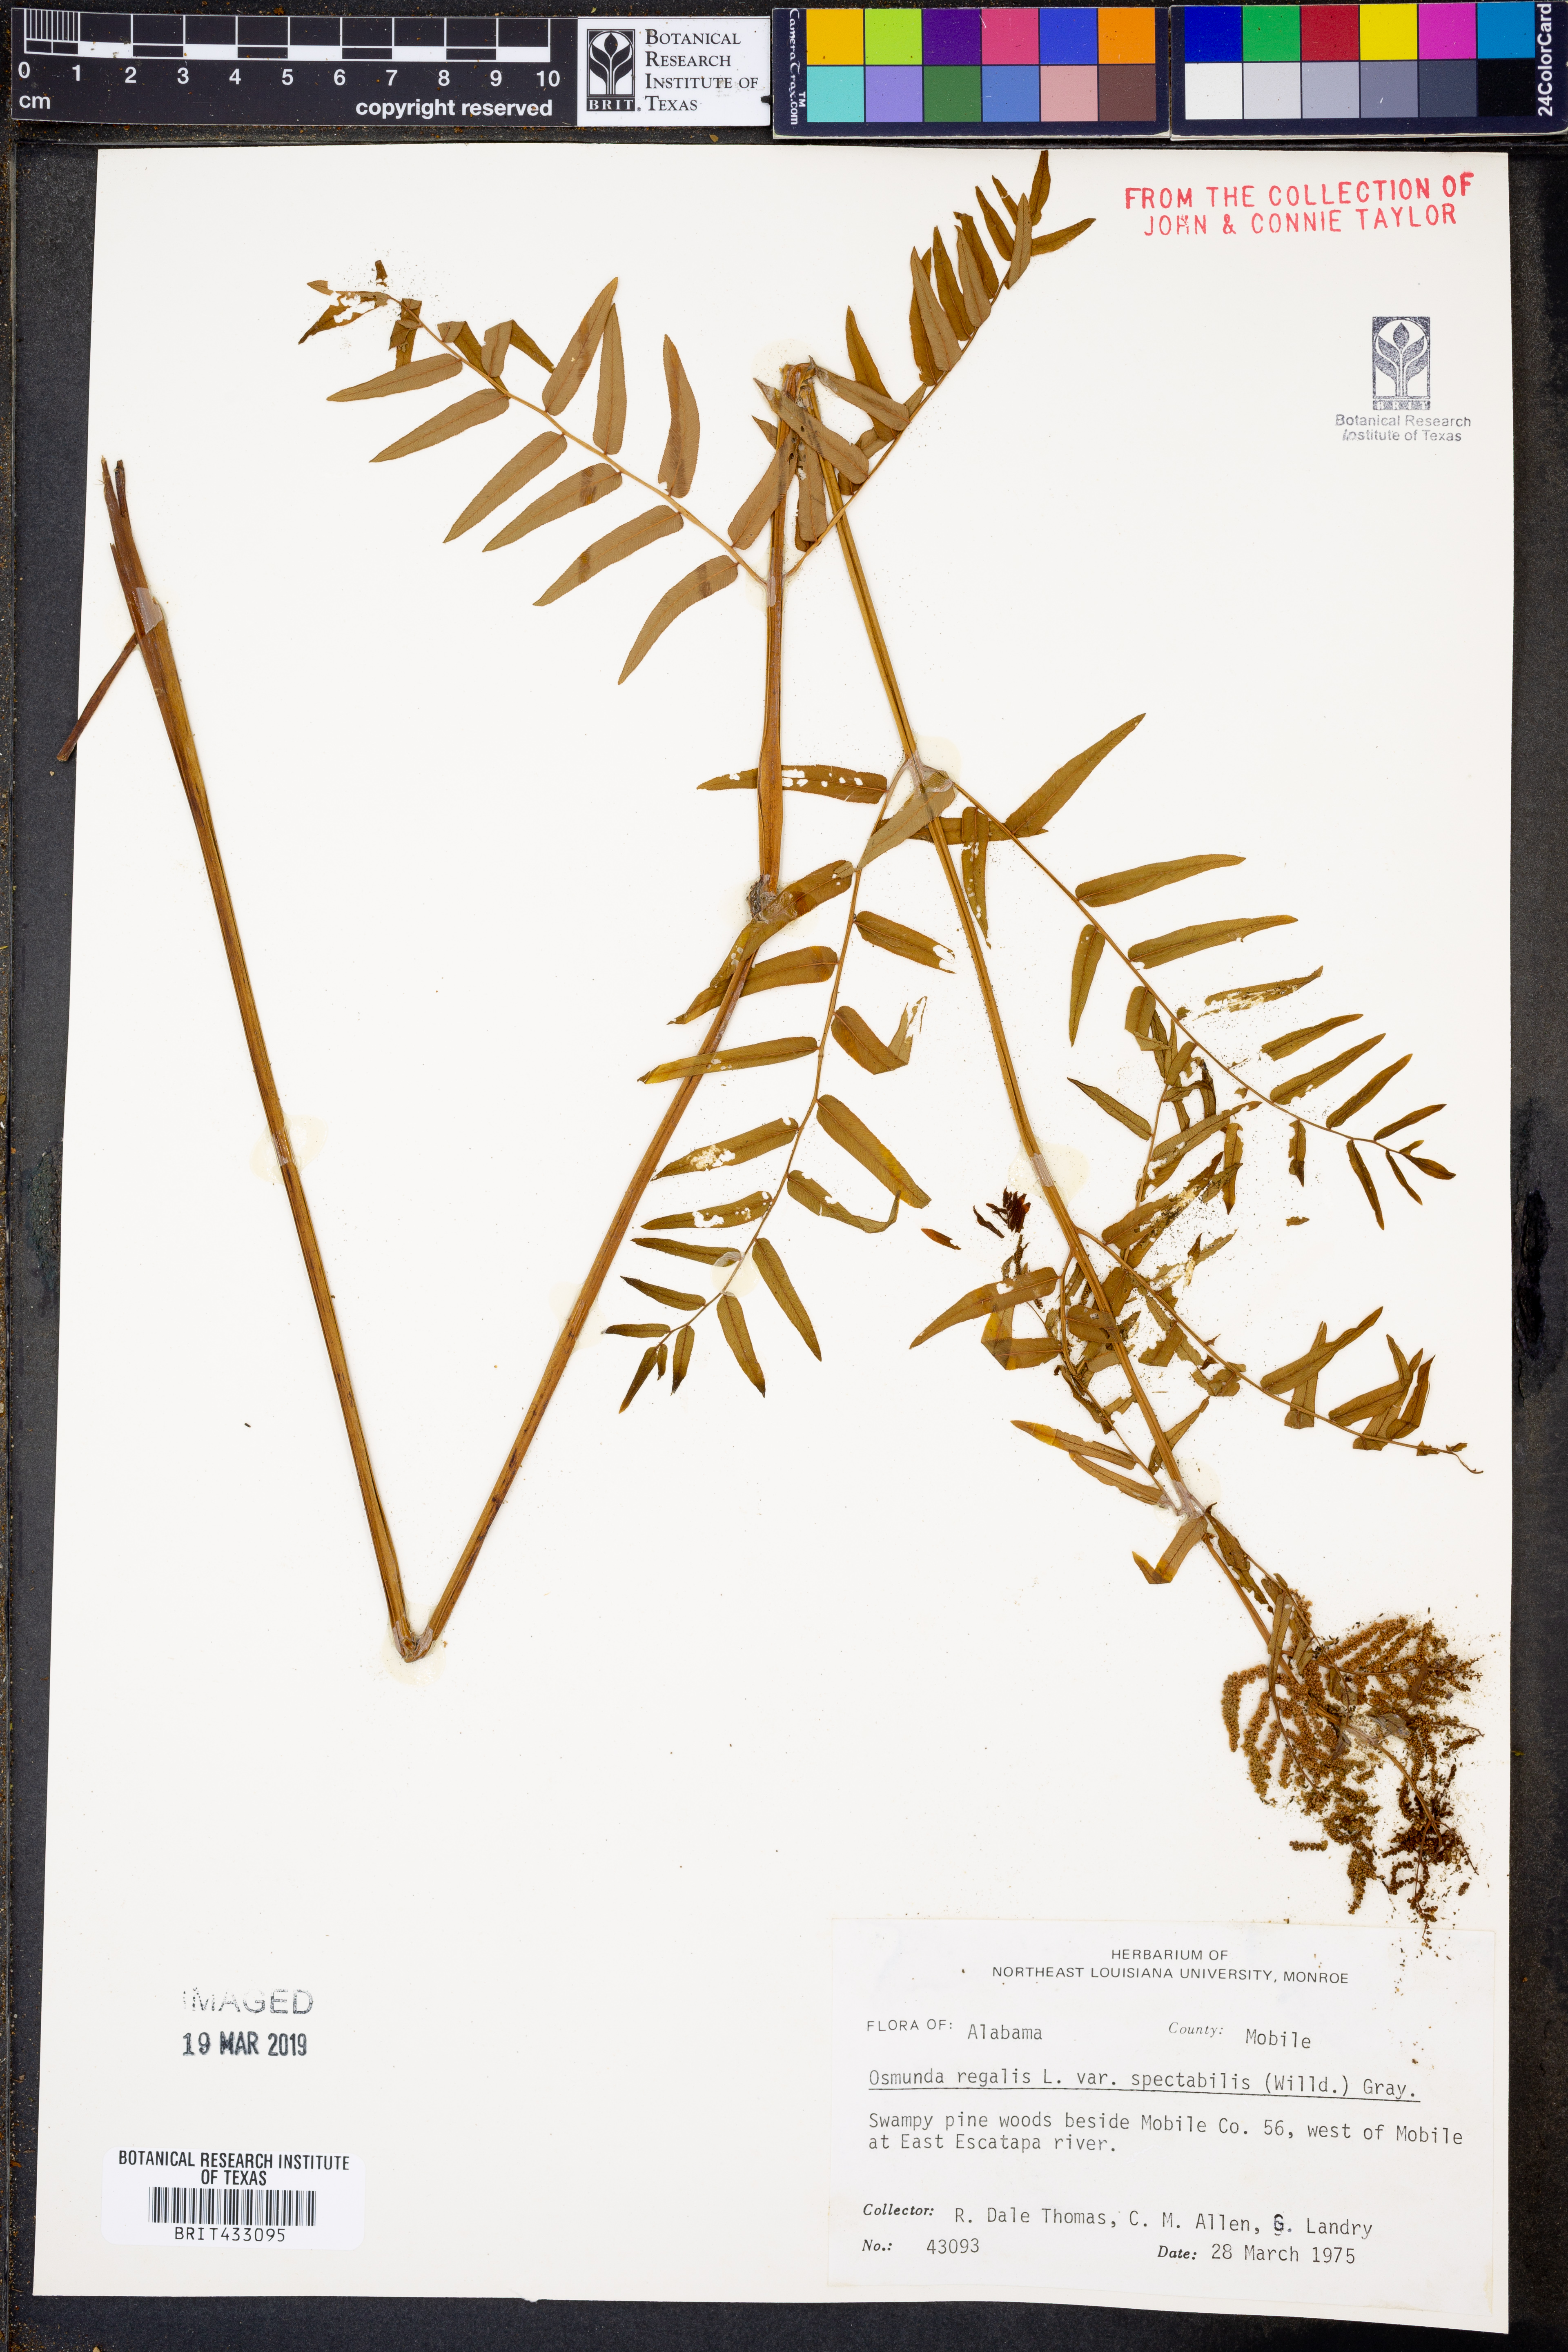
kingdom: Plantae
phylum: Tracheophyta
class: Polypodiopsida
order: Osmundales
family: Osmundaceae
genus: Osmunda
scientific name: Osmunda spectabilis
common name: American royal fern
